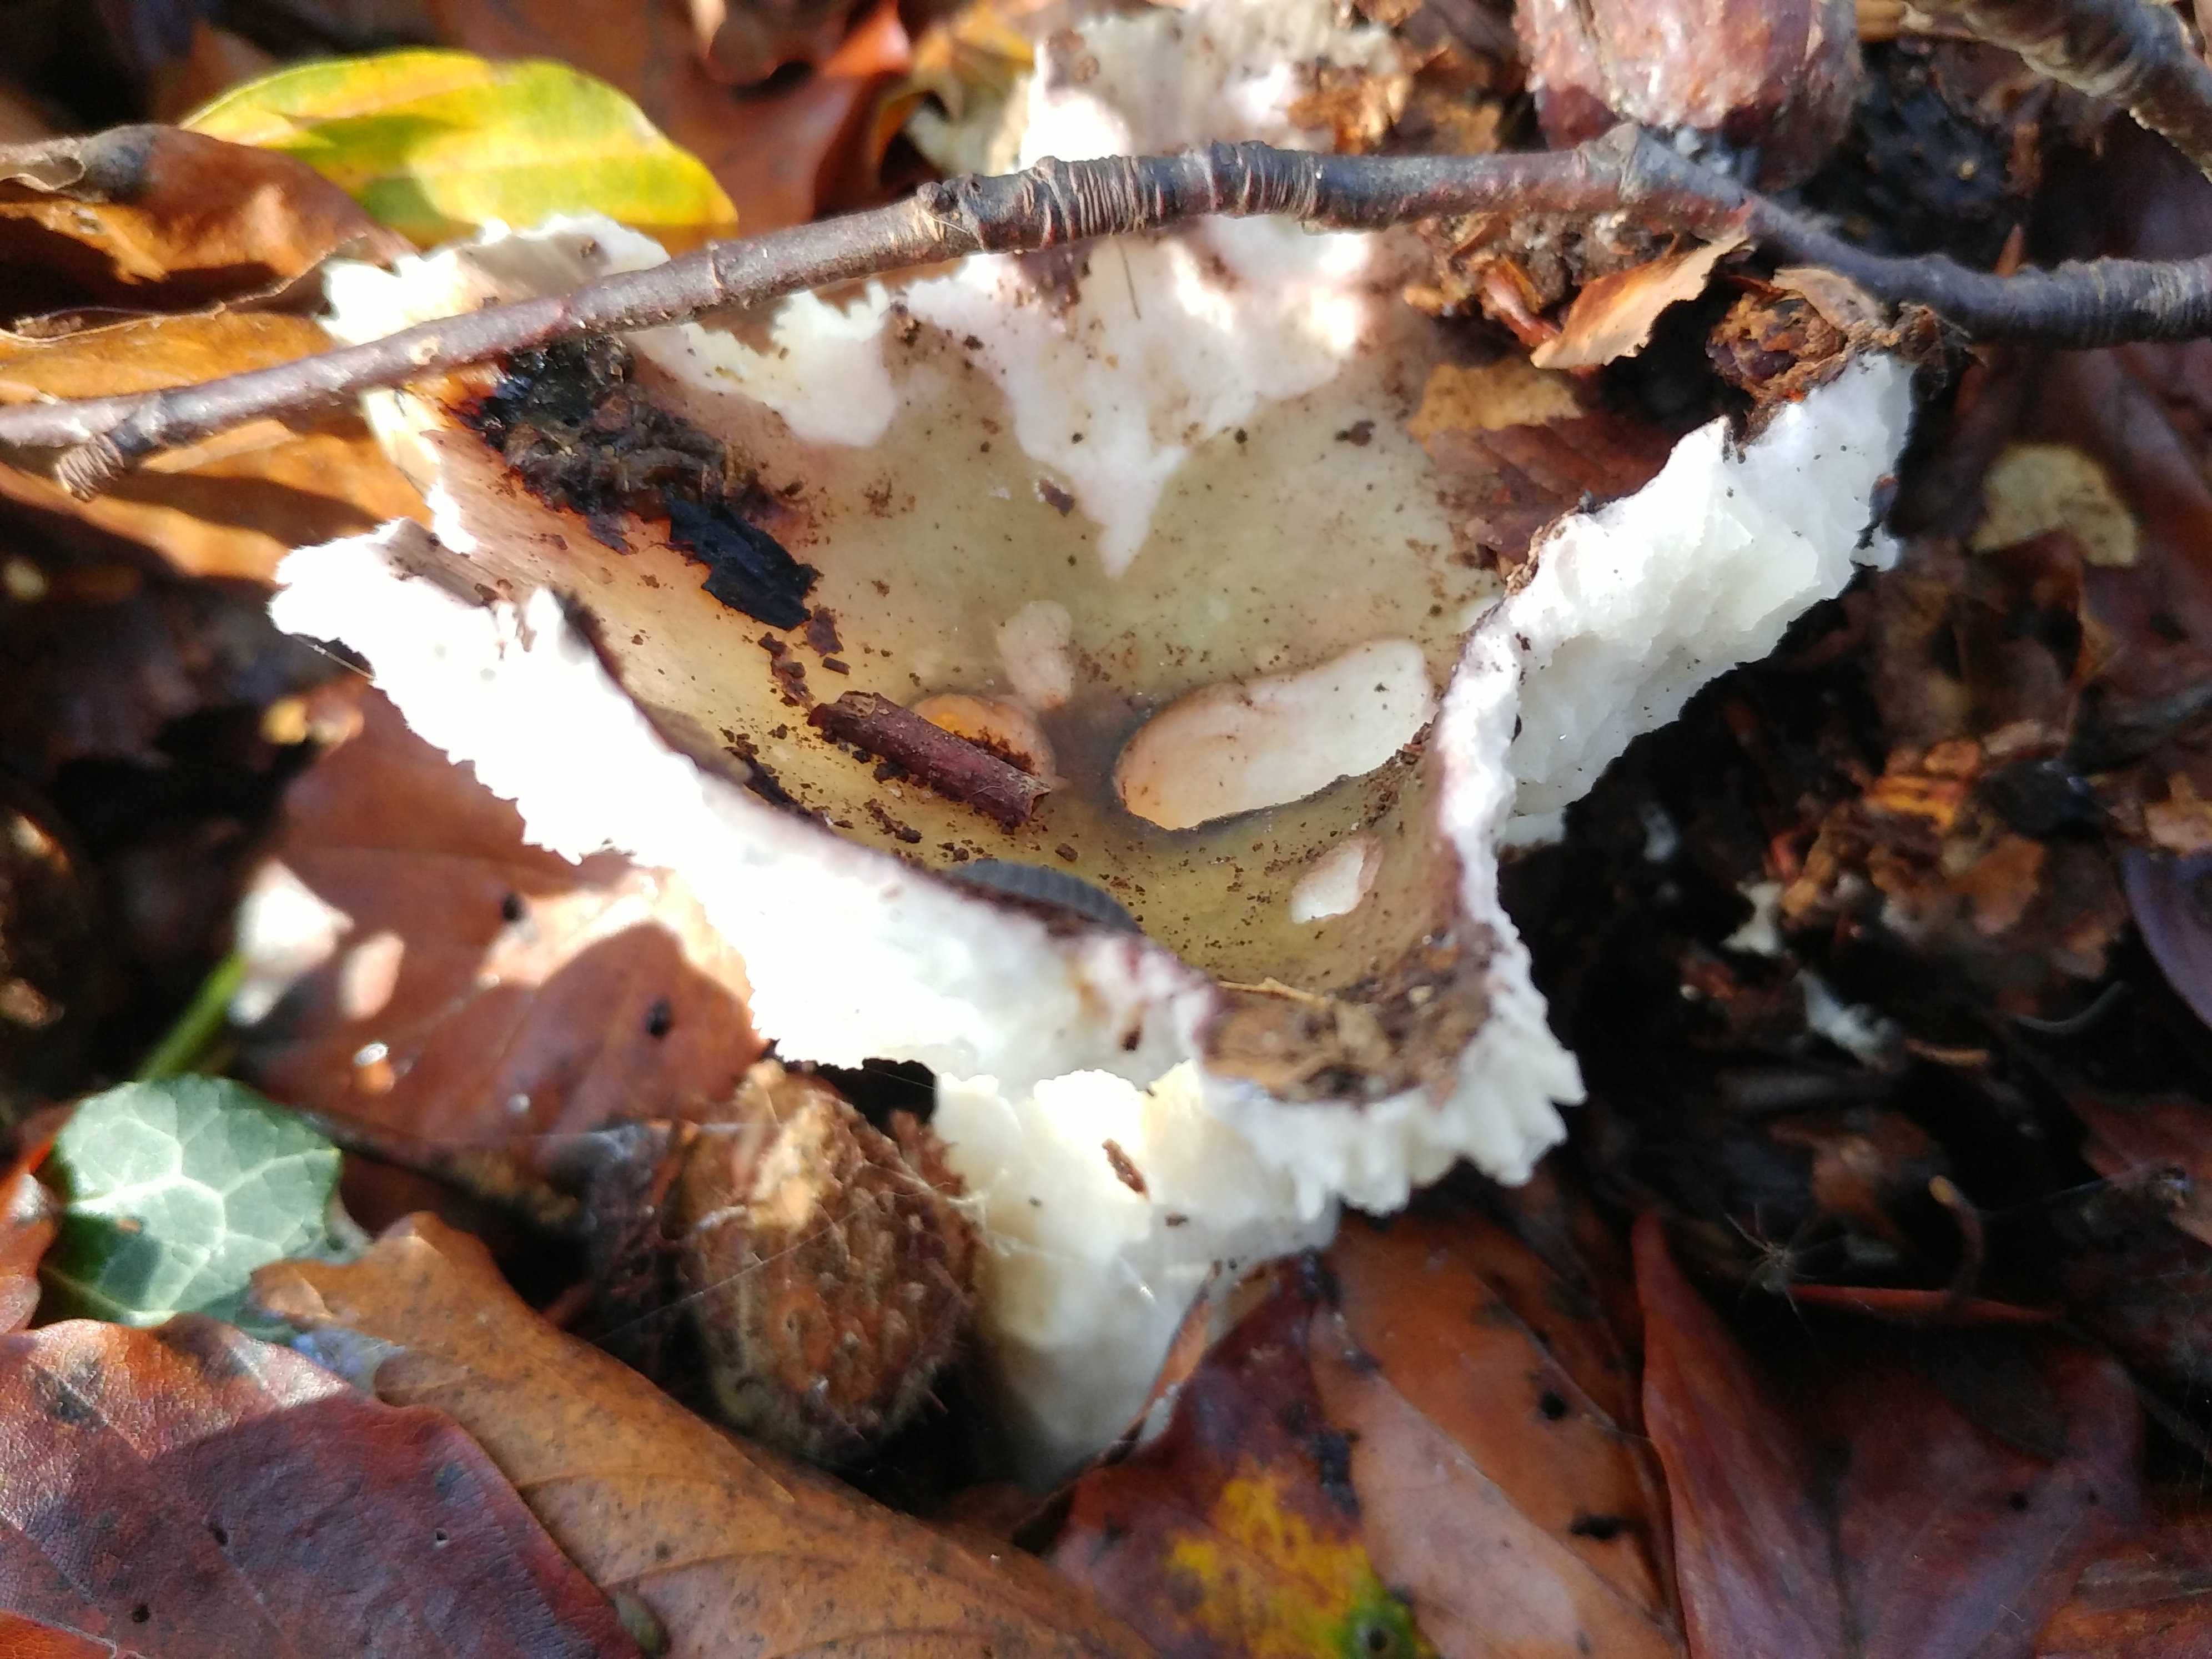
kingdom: Fungi
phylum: Basidiomycota
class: Agaricomycetes
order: Russulales
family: Russulaceae
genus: Russula
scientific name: Russula
